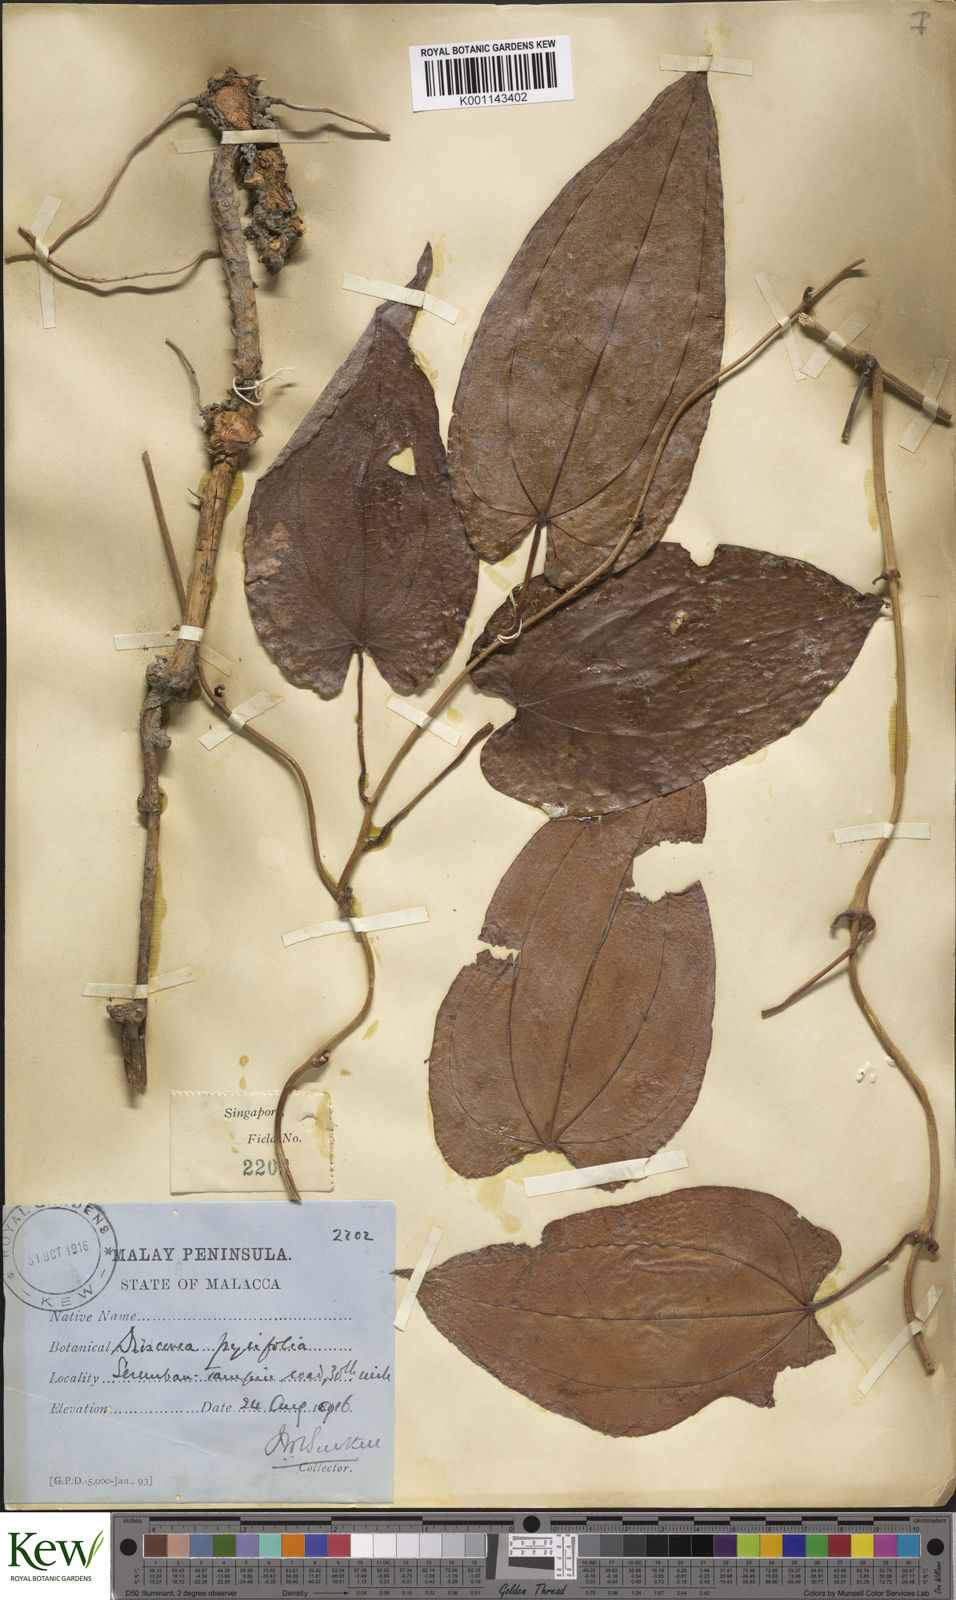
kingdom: Plantae
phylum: Tracheophyta
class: Liliopsida
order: Dioscoreales
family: Dioscoreaceae
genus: Dioscorea
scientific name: Dioscorea pyrifolia
